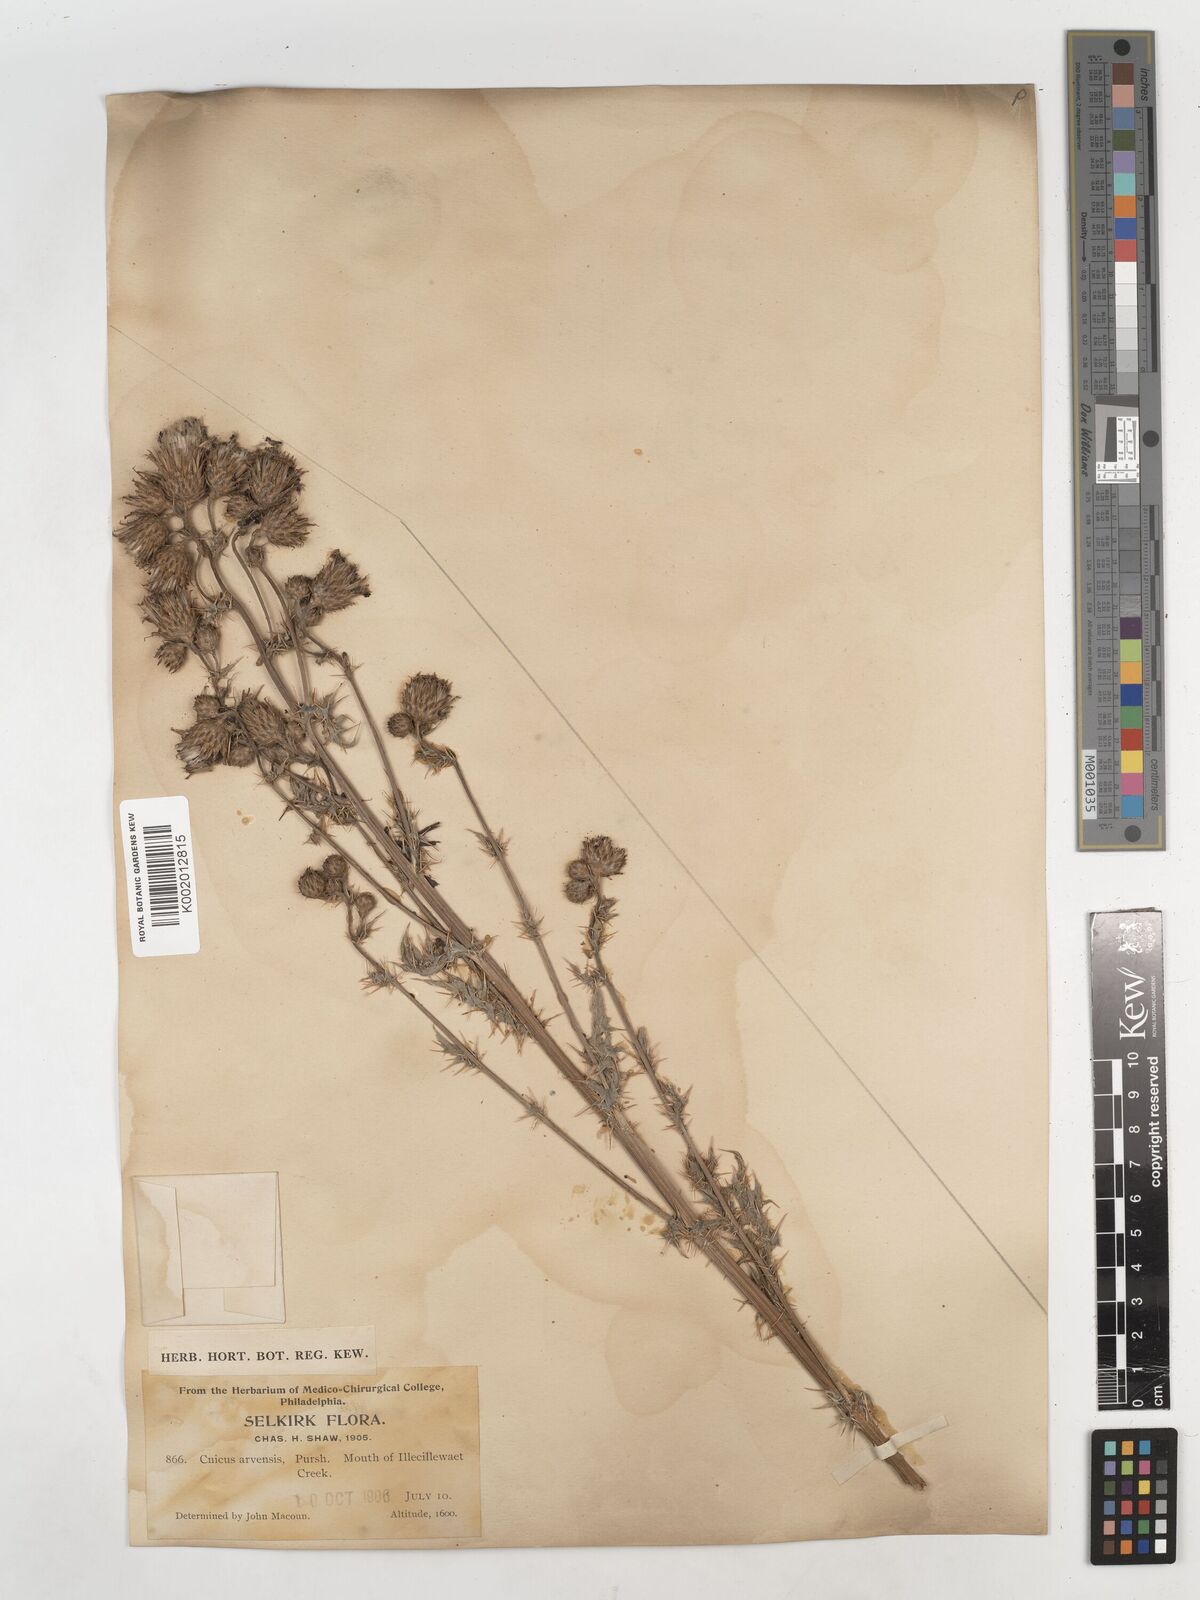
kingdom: Plantae
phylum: Tracheophyta
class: Magnoliopsida
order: Asterales
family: Asteraceae
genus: Cirsium
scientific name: Cirsium vulgare
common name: Bull thistle
